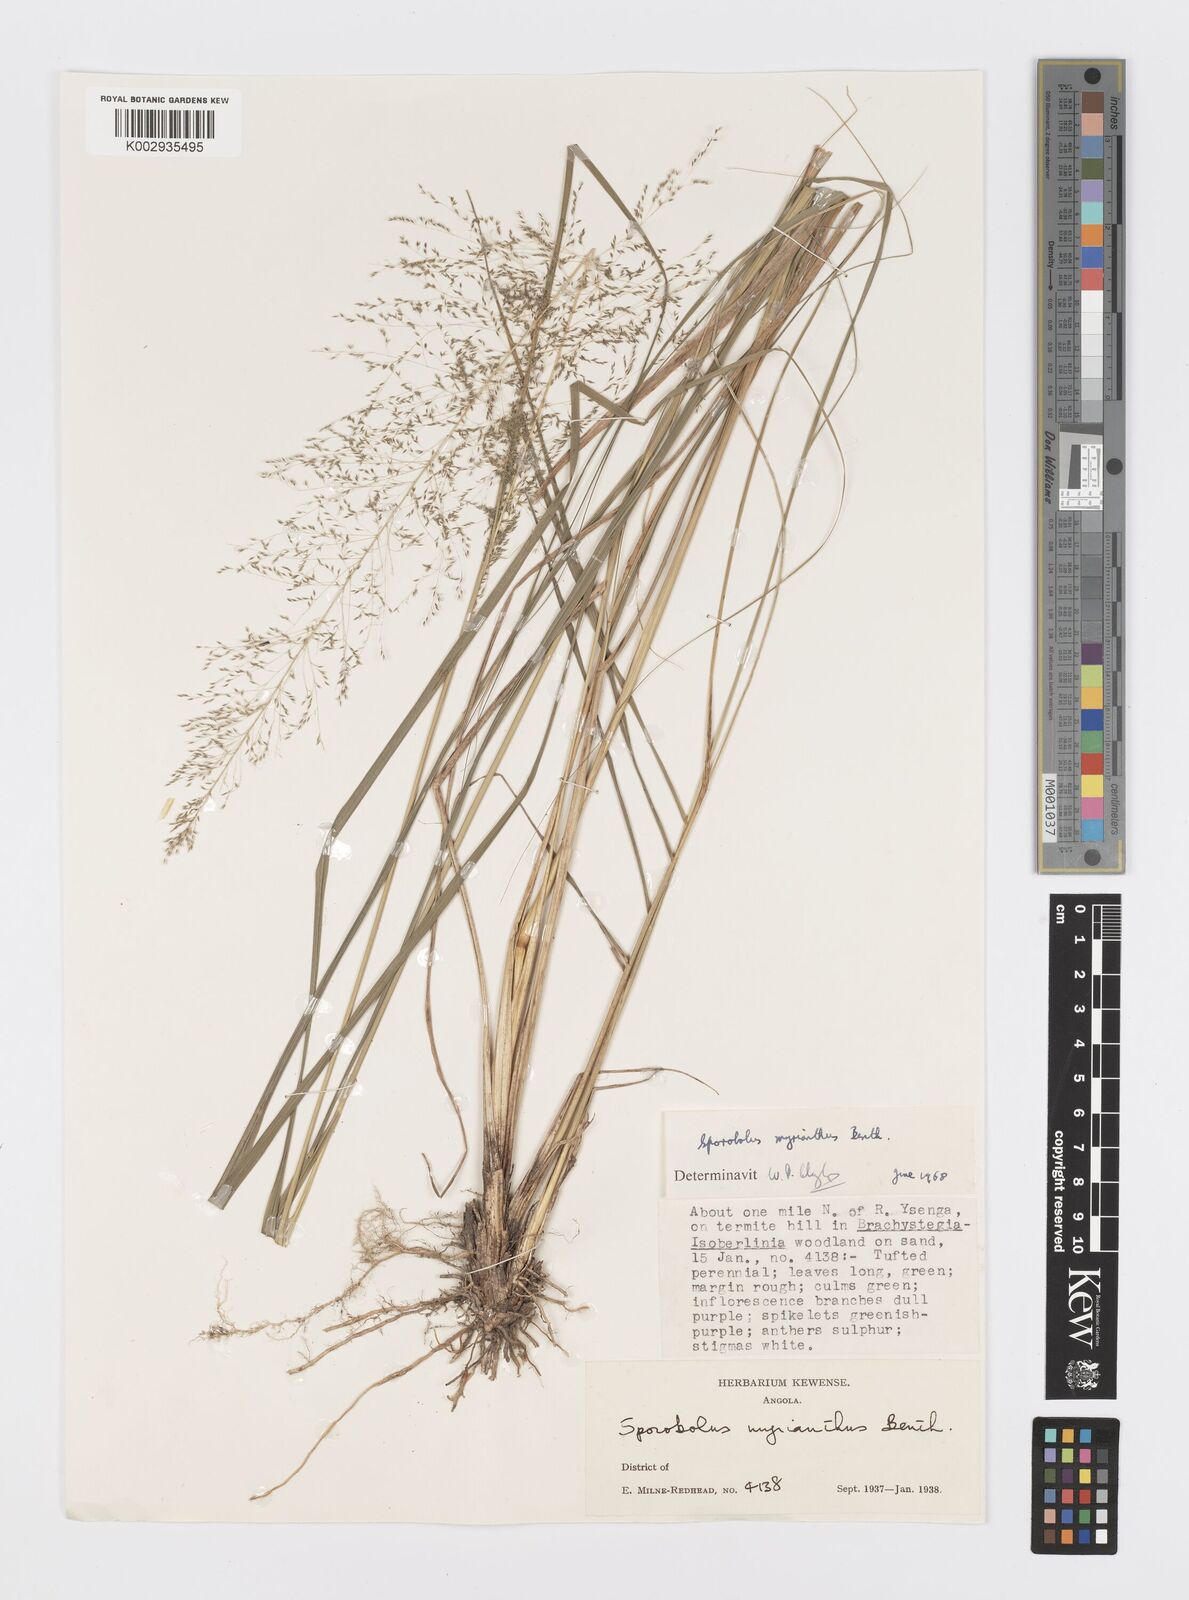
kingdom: Plantae
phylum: Tracheophyta
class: Liliopsida
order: Poales
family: Poaceae
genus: Sporobolus
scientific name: Sporobolus myrianthus
